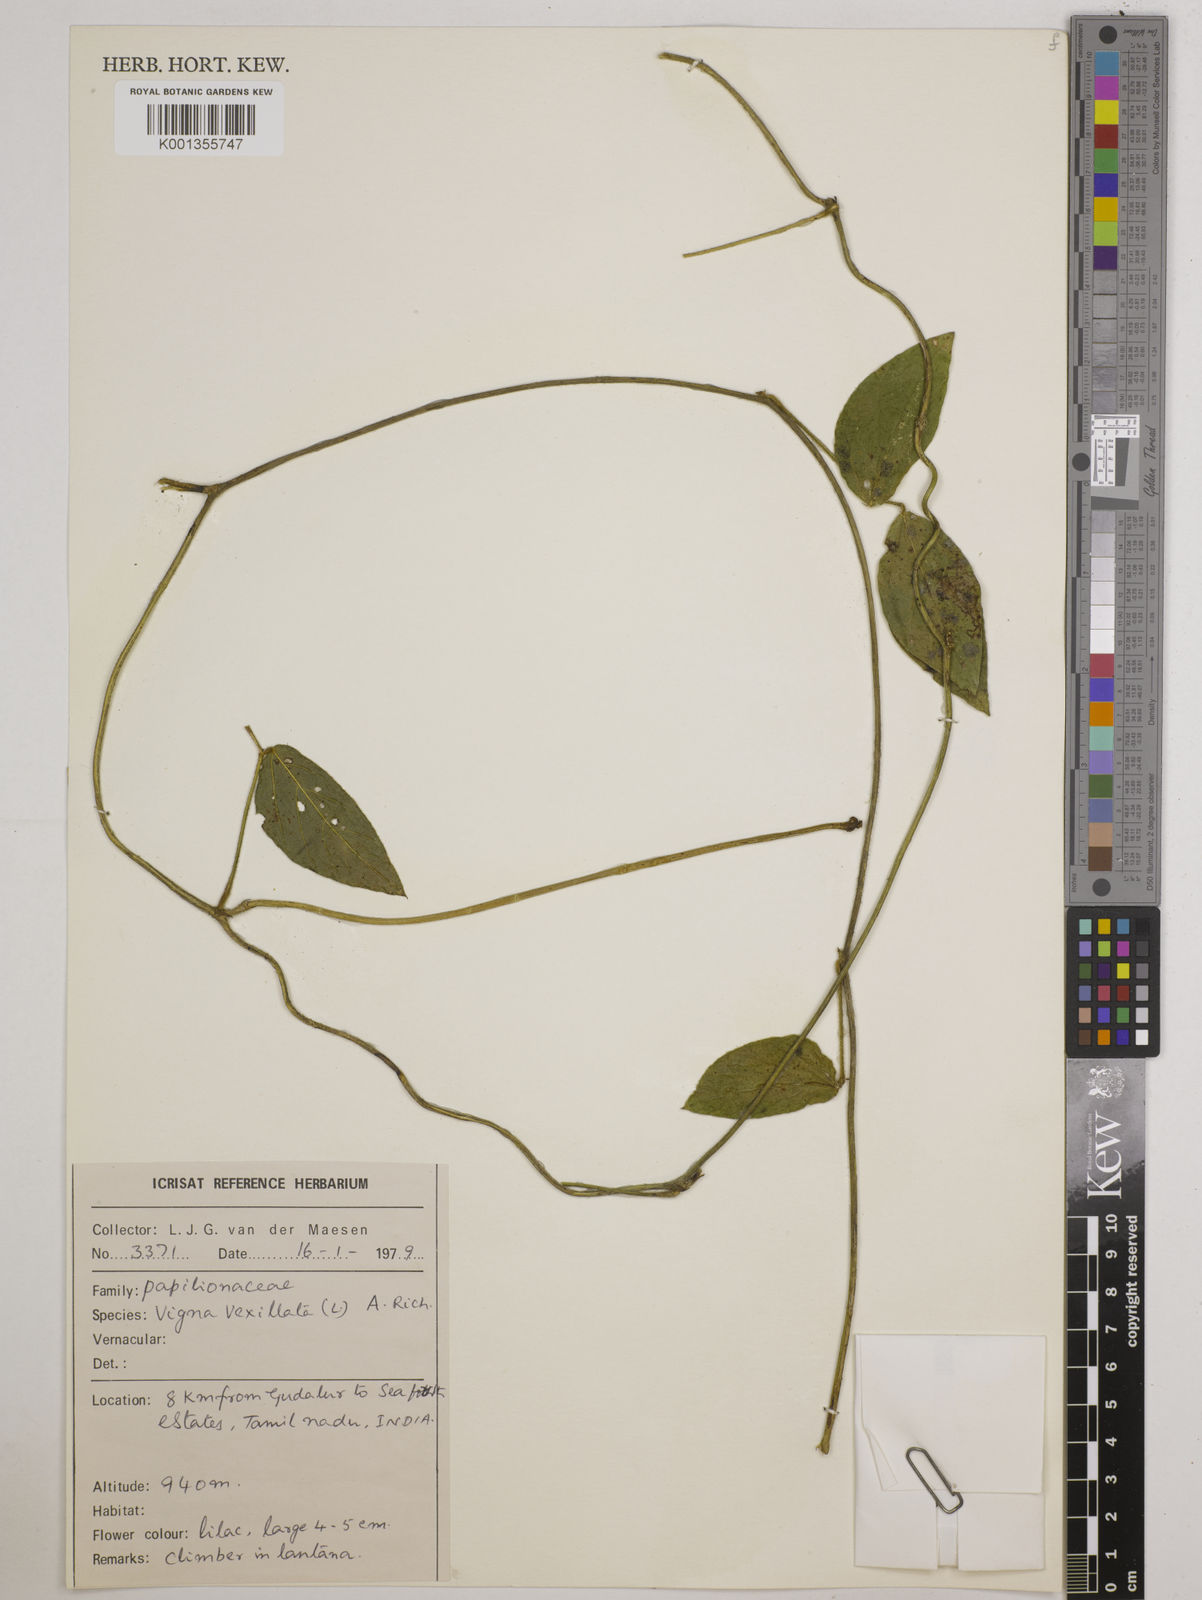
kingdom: Plantae
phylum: Tracheophyta
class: Magnoliopsida
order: Fabales
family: Fabaceae
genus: Vigna
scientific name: Vigna vexillata
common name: Zombi pea
